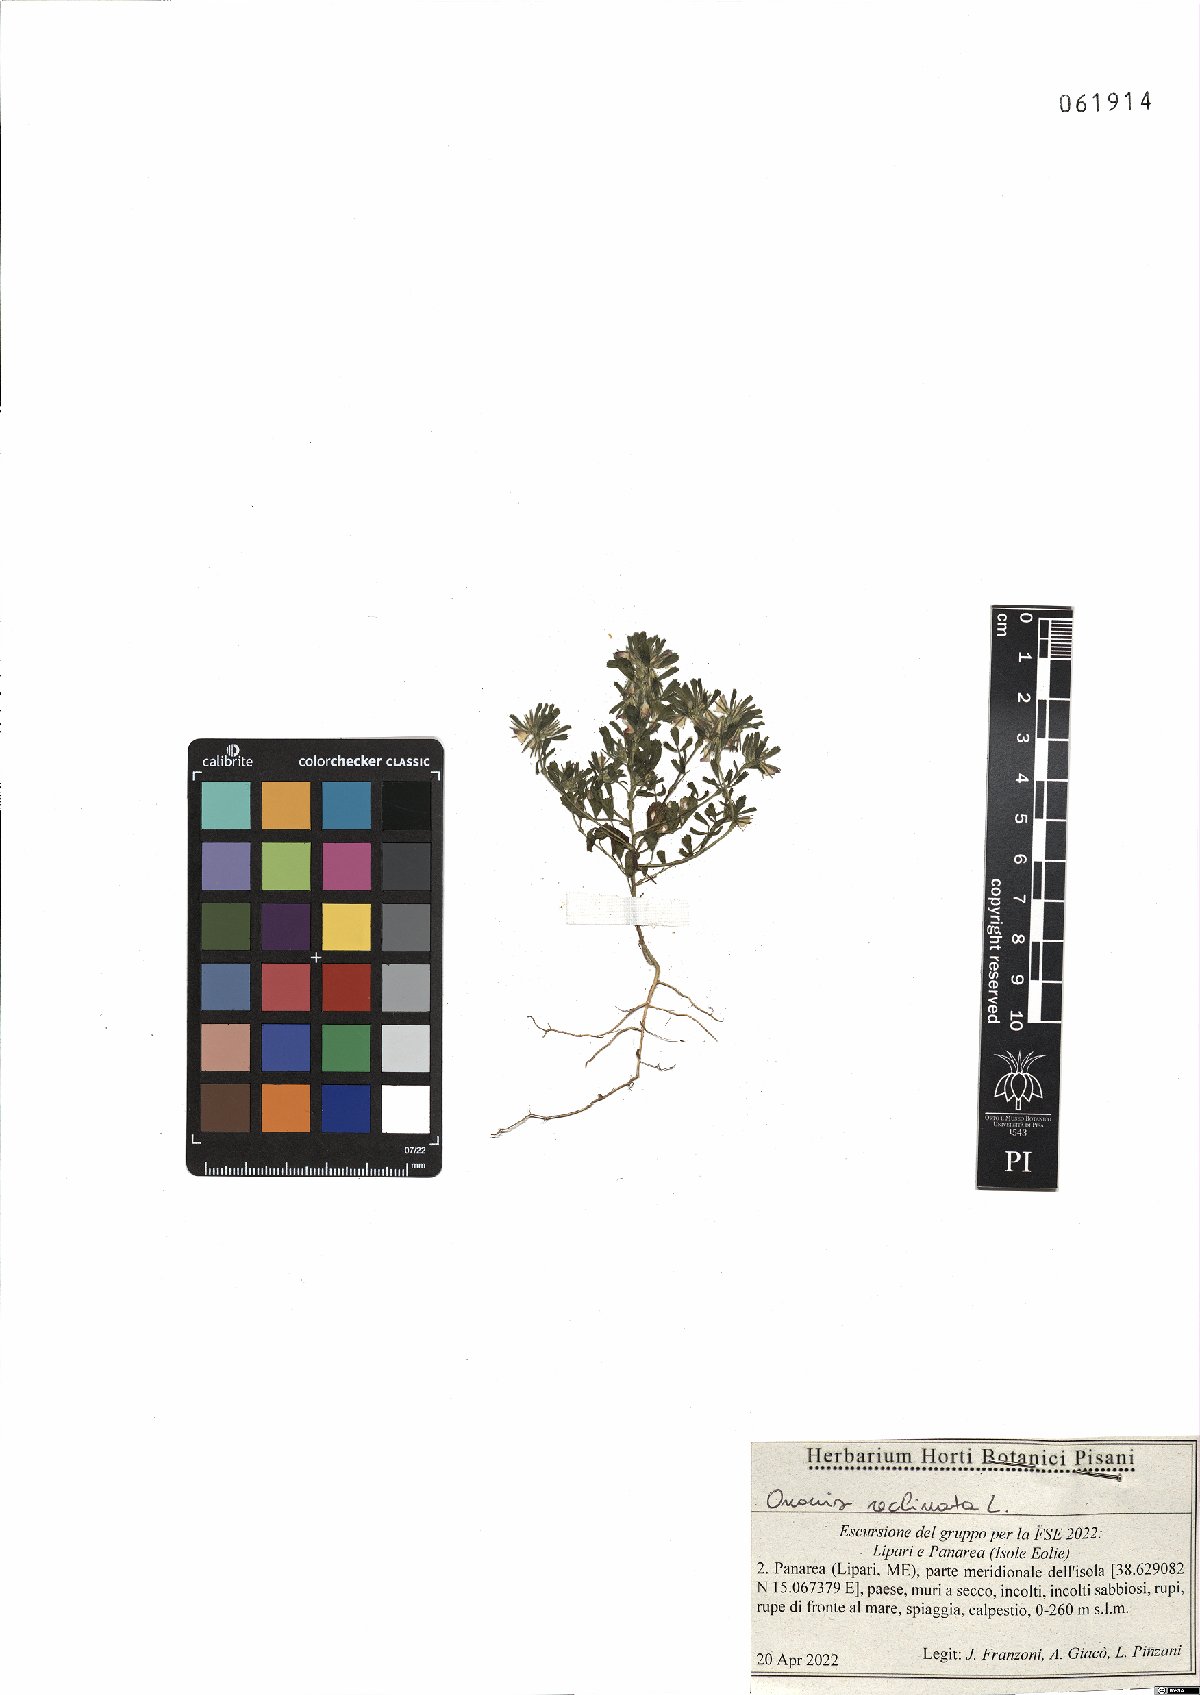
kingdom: Plantae
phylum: Tracheophyta
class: Magnoliopsida
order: Fabales
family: Fabaceae
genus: Ononis
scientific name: Ononis reclinata
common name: Small restharrow
